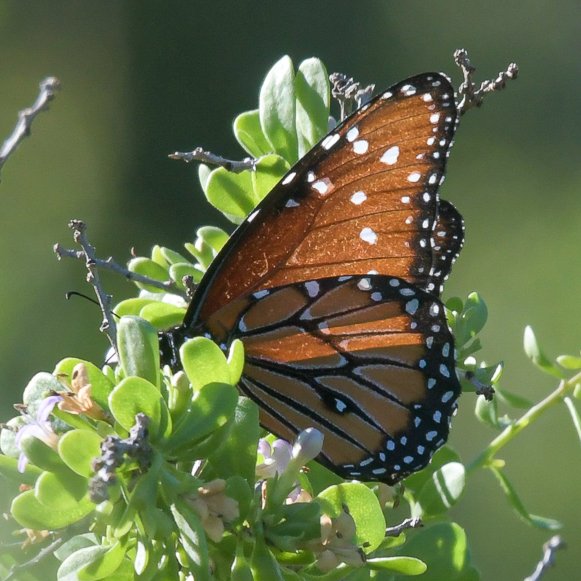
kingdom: Animalia
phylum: Arthropoda
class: Insecta
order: Lepidoptera
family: Nymphalidae
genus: Danaus
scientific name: Danaus gilippus
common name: Queen
